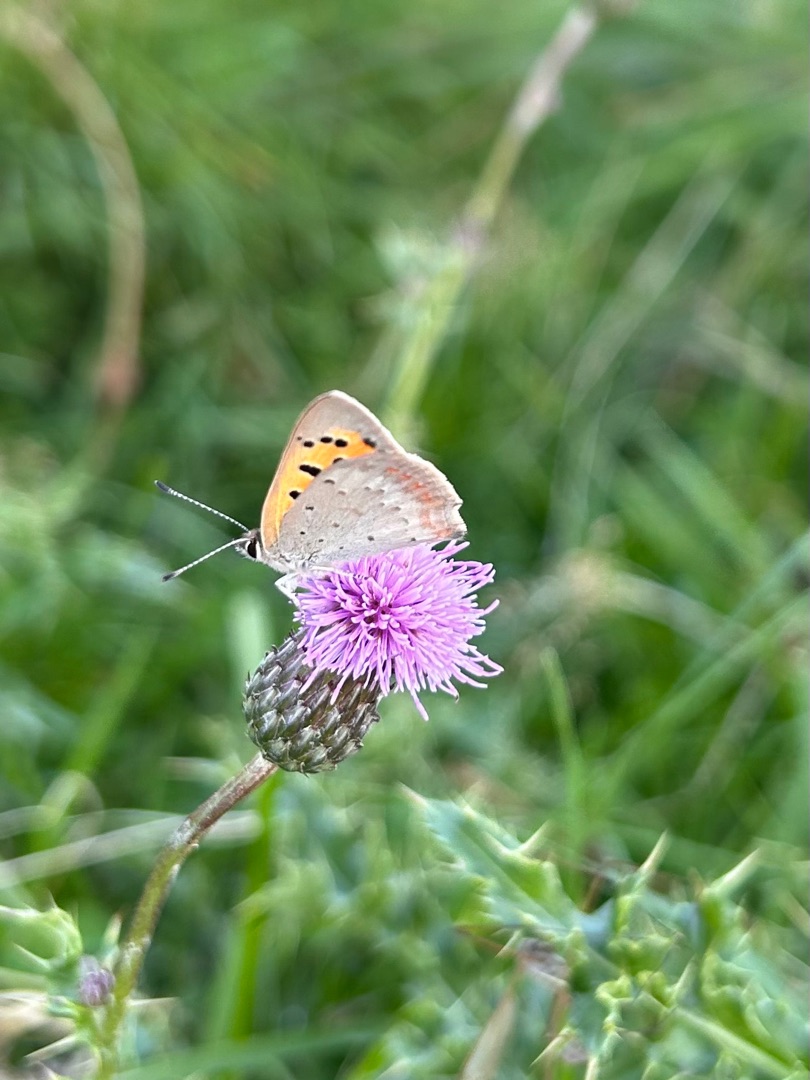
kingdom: Animalia
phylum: Arthropoda
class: Insecta
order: Lepidoptera
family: Lycaenidae
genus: Lycaena
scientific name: Lycaena phlaeas
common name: Lille ildfugl
